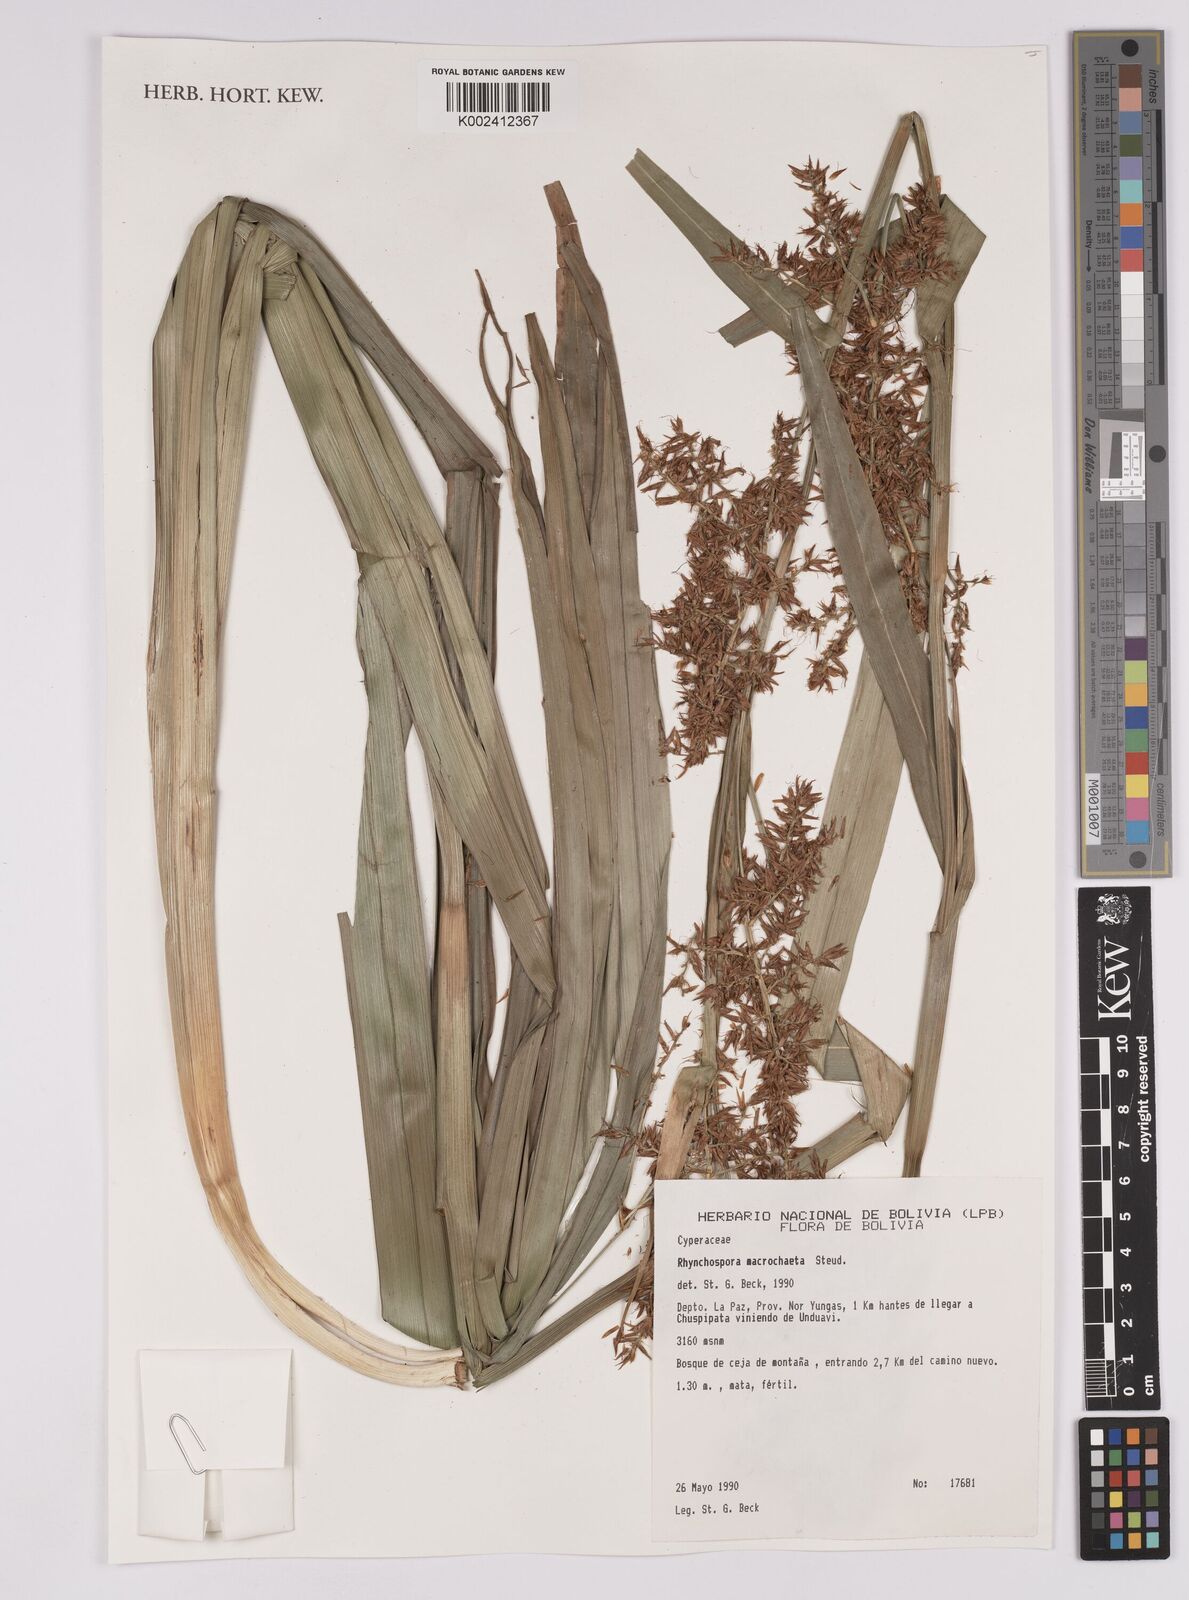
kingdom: Plantae
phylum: Tracheophyta
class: Liliopsida
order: Poales
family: Cyperaceae
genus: Rhynchospora
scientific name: Rhynchospora macrochaeta
